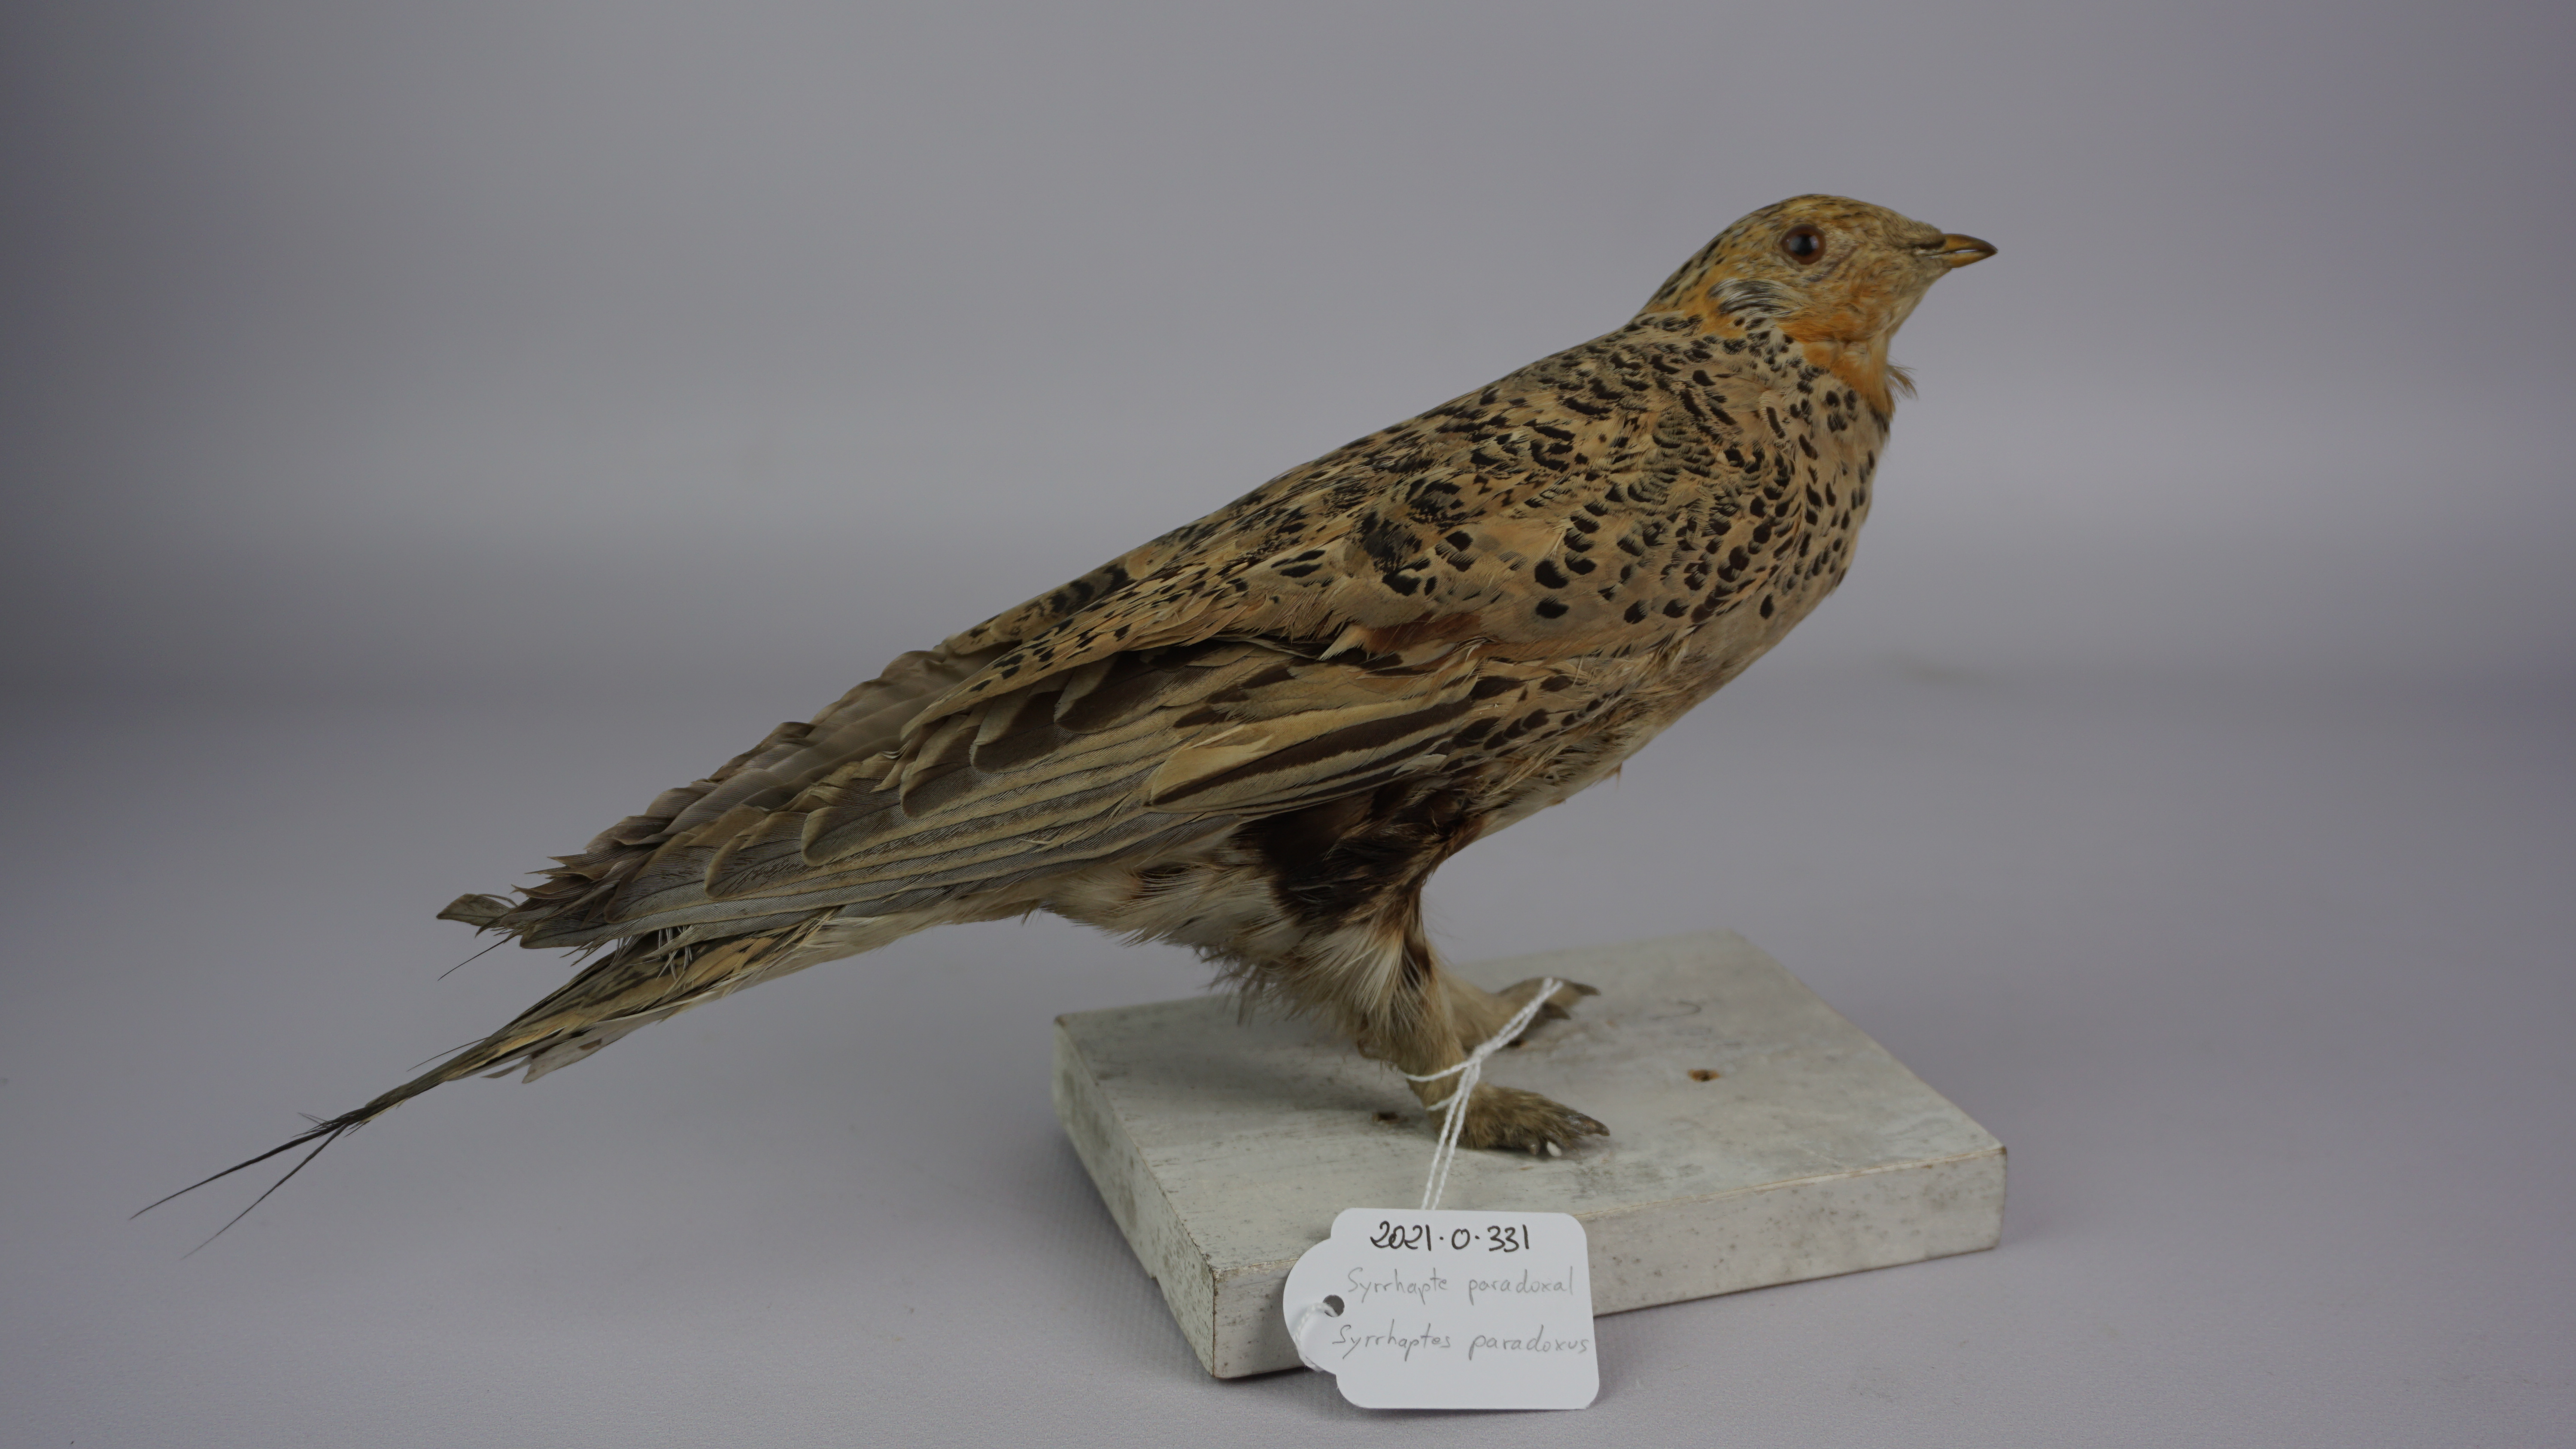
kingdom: Animalia
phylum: Chordata
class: Aves
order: Pteroclidiformes
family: Pteroclididae
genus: Syrrhaptes
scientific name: Syrrhaptes paradoxus
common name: Pallas's sandgrouse
